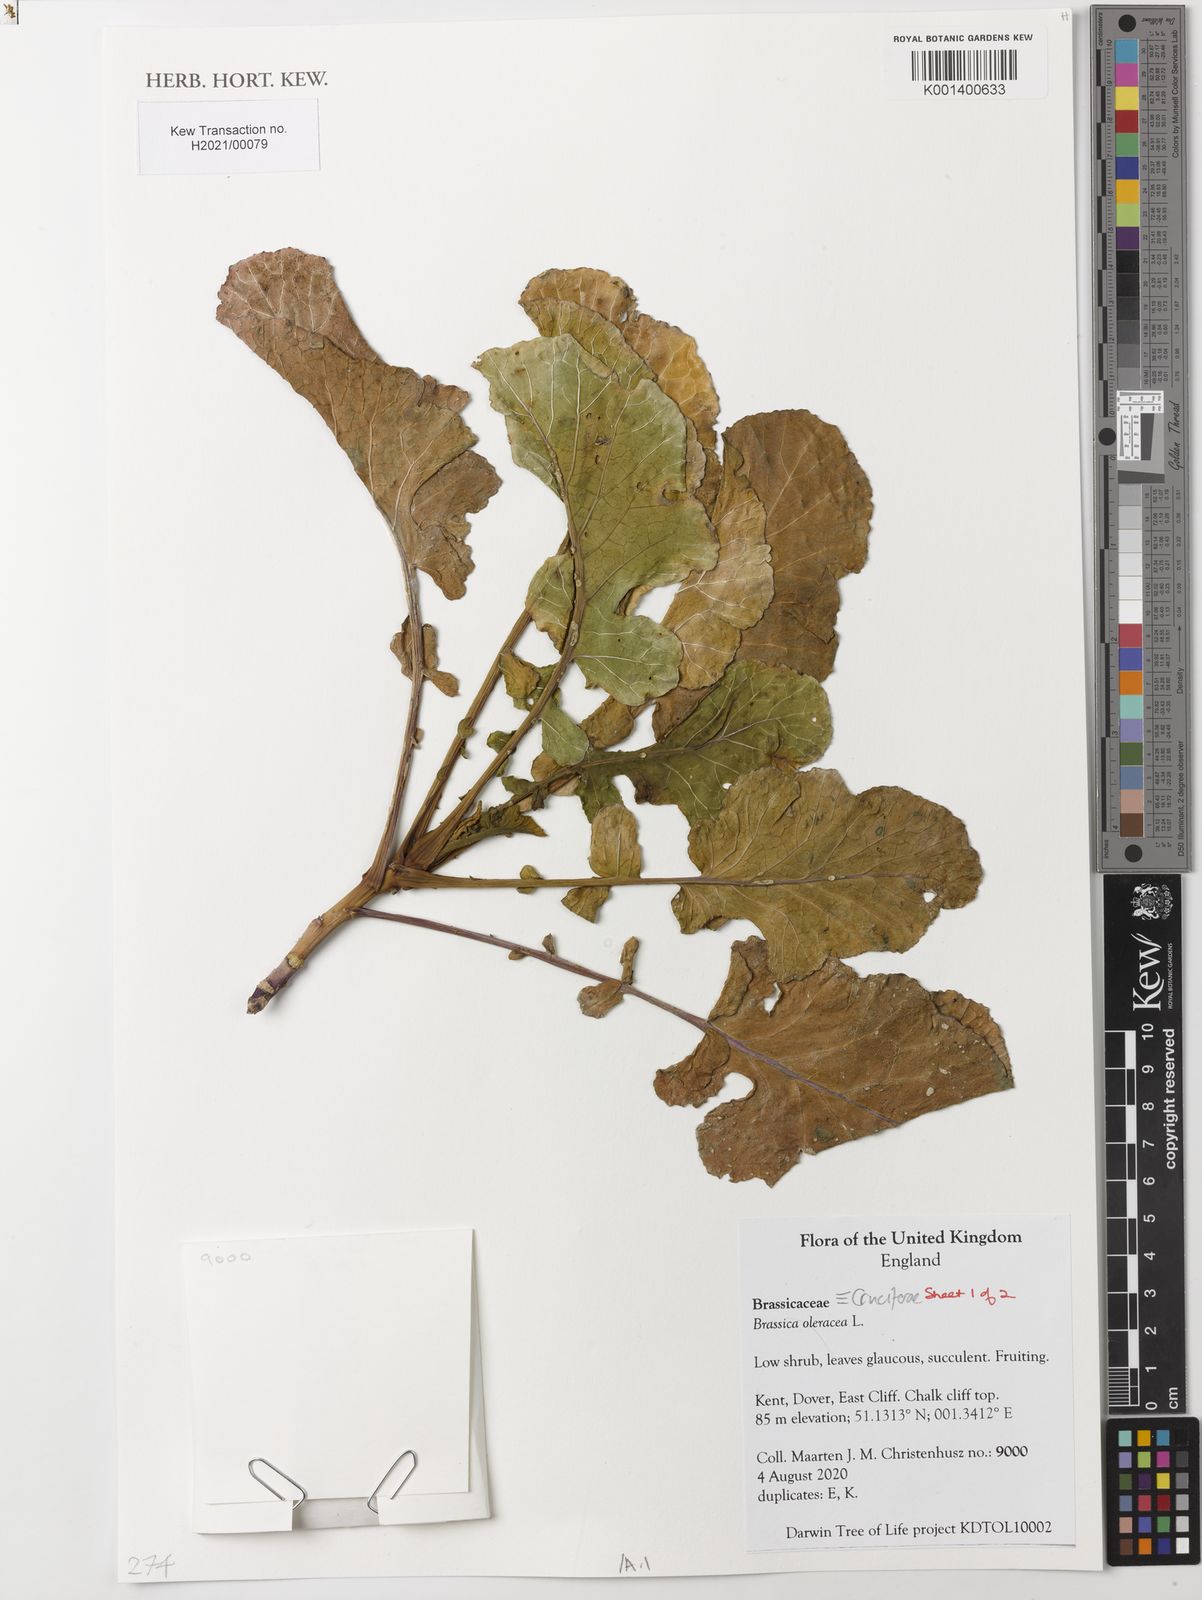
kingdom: Plantae
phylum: Tracheophyta
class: Magnoliopsida
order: Brassicales
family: Brassicaceae
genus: Brassica
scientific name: Brassica oleracea
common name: Cabbage
